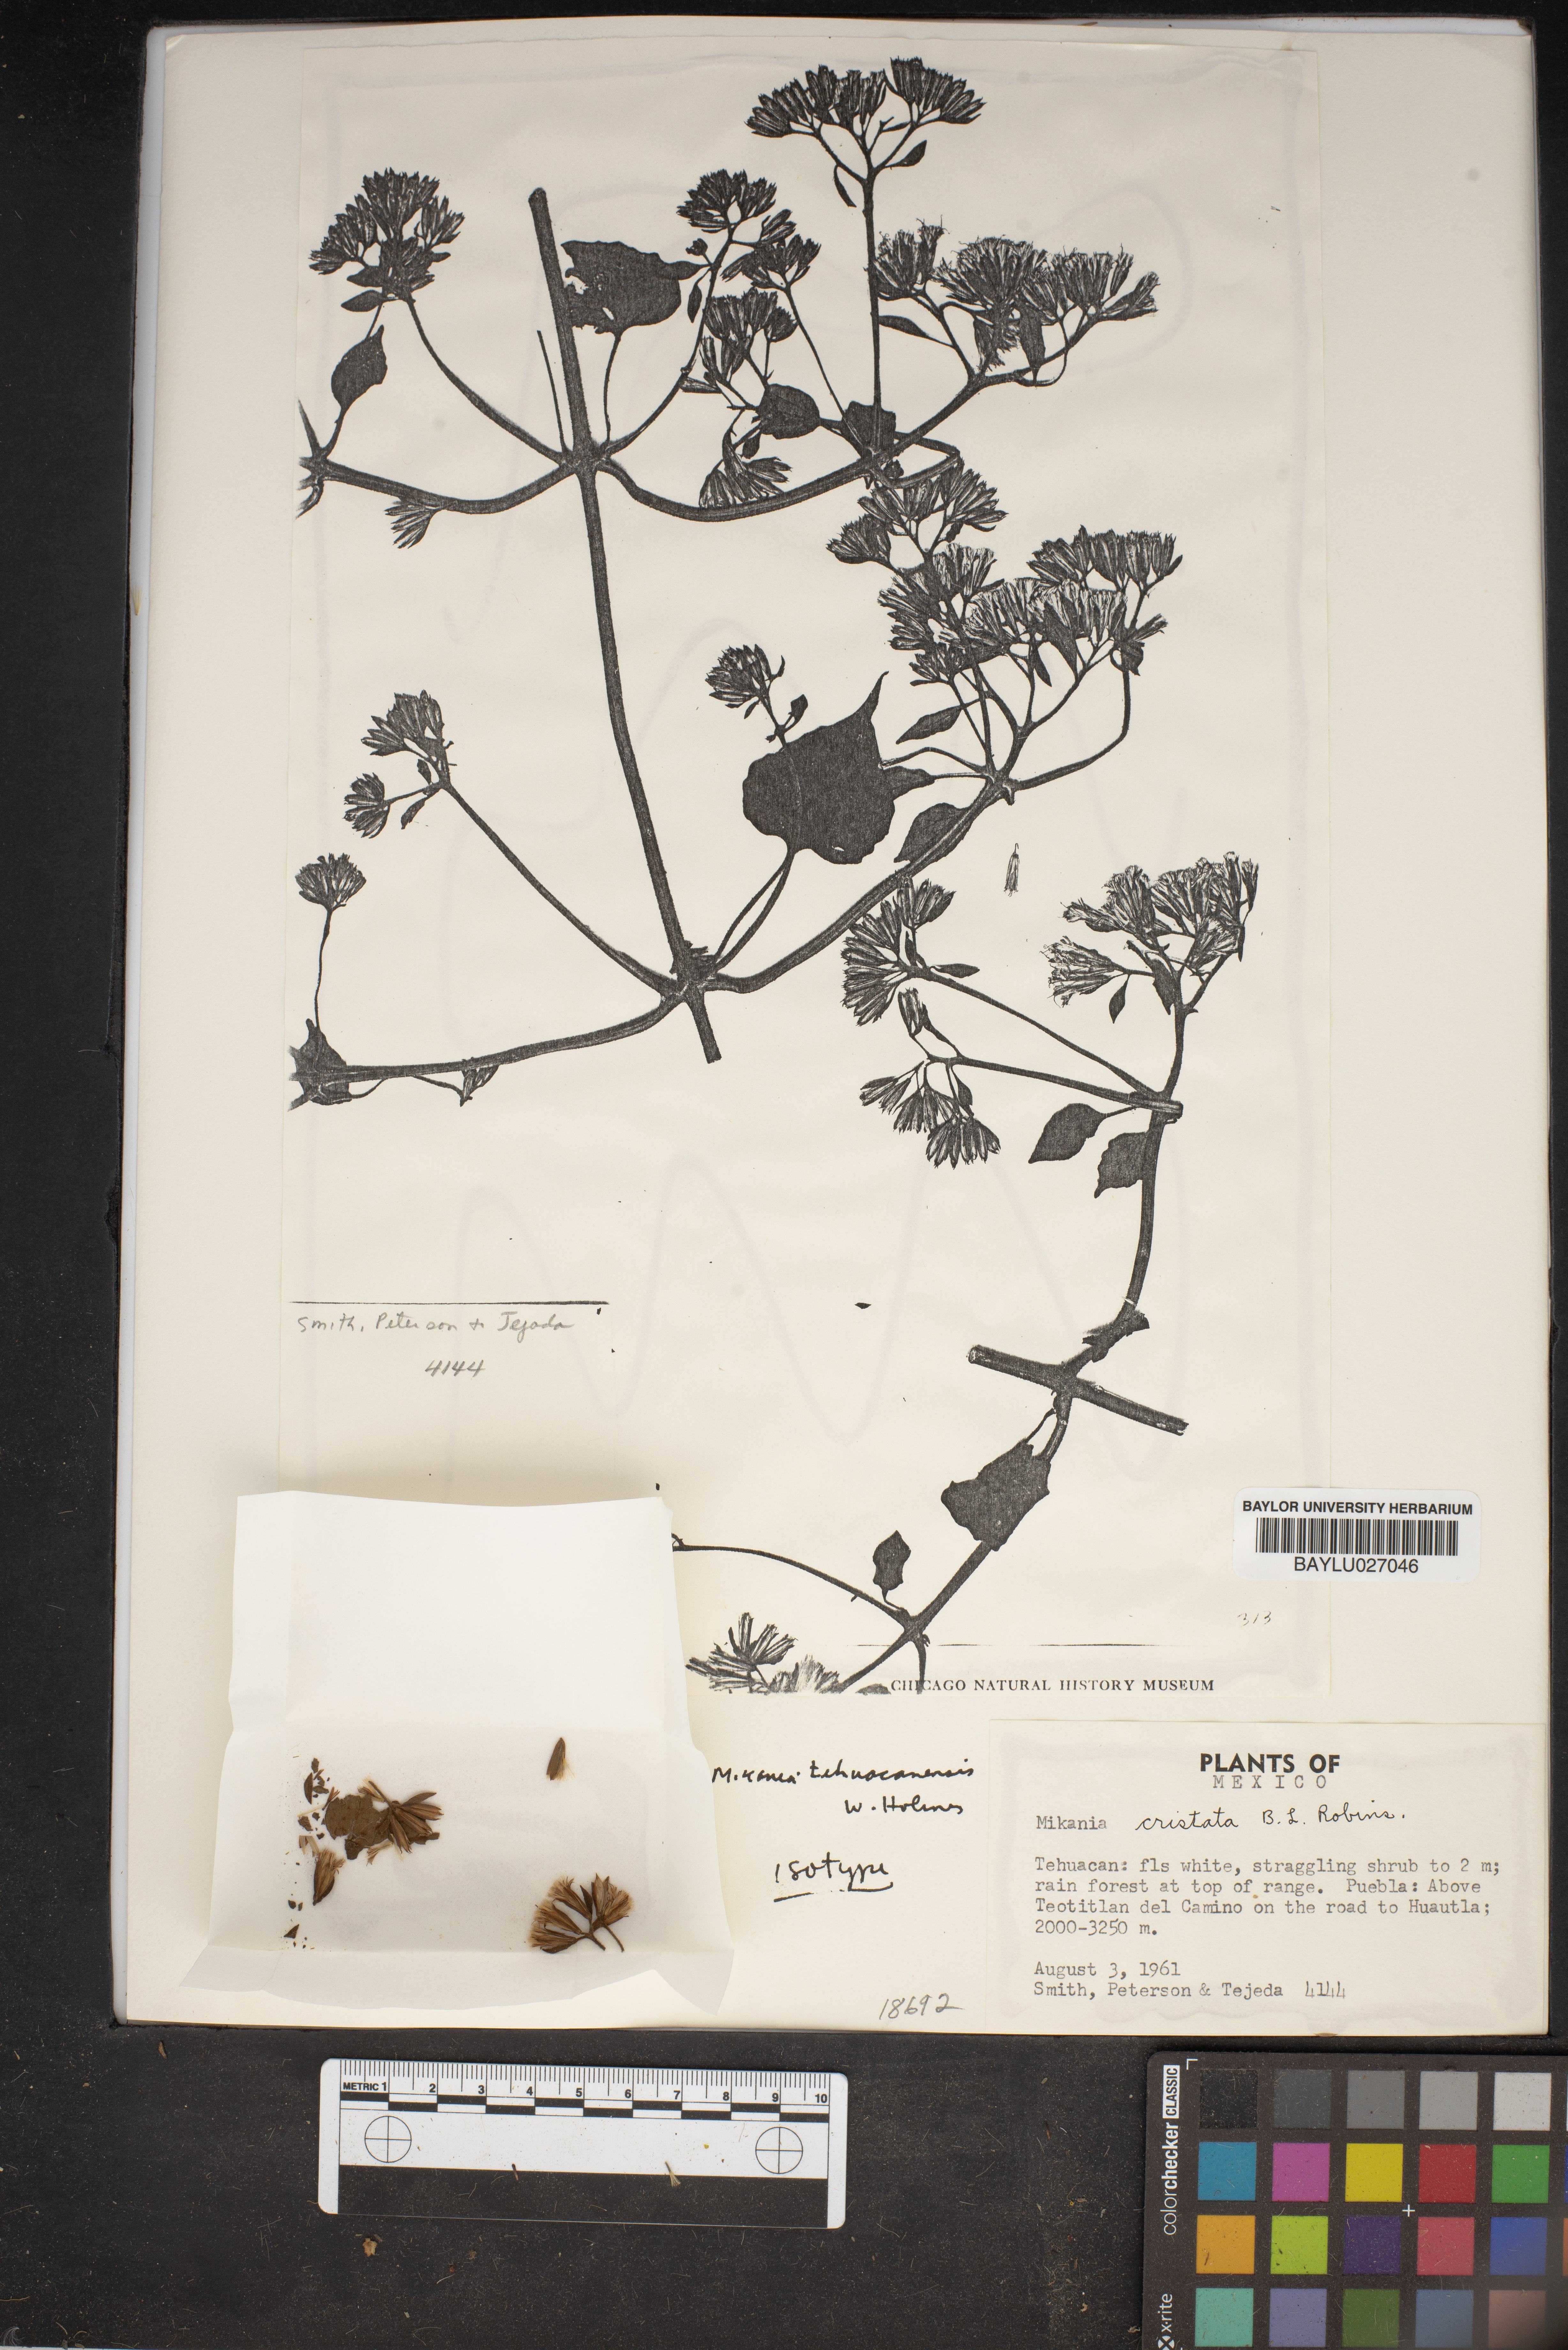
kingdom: Plantae
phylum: Tracheophyta
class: Magnoliopsida
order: Asterales
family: Asteraceae
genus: Mikania
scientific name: Mikania tehuacanensis
